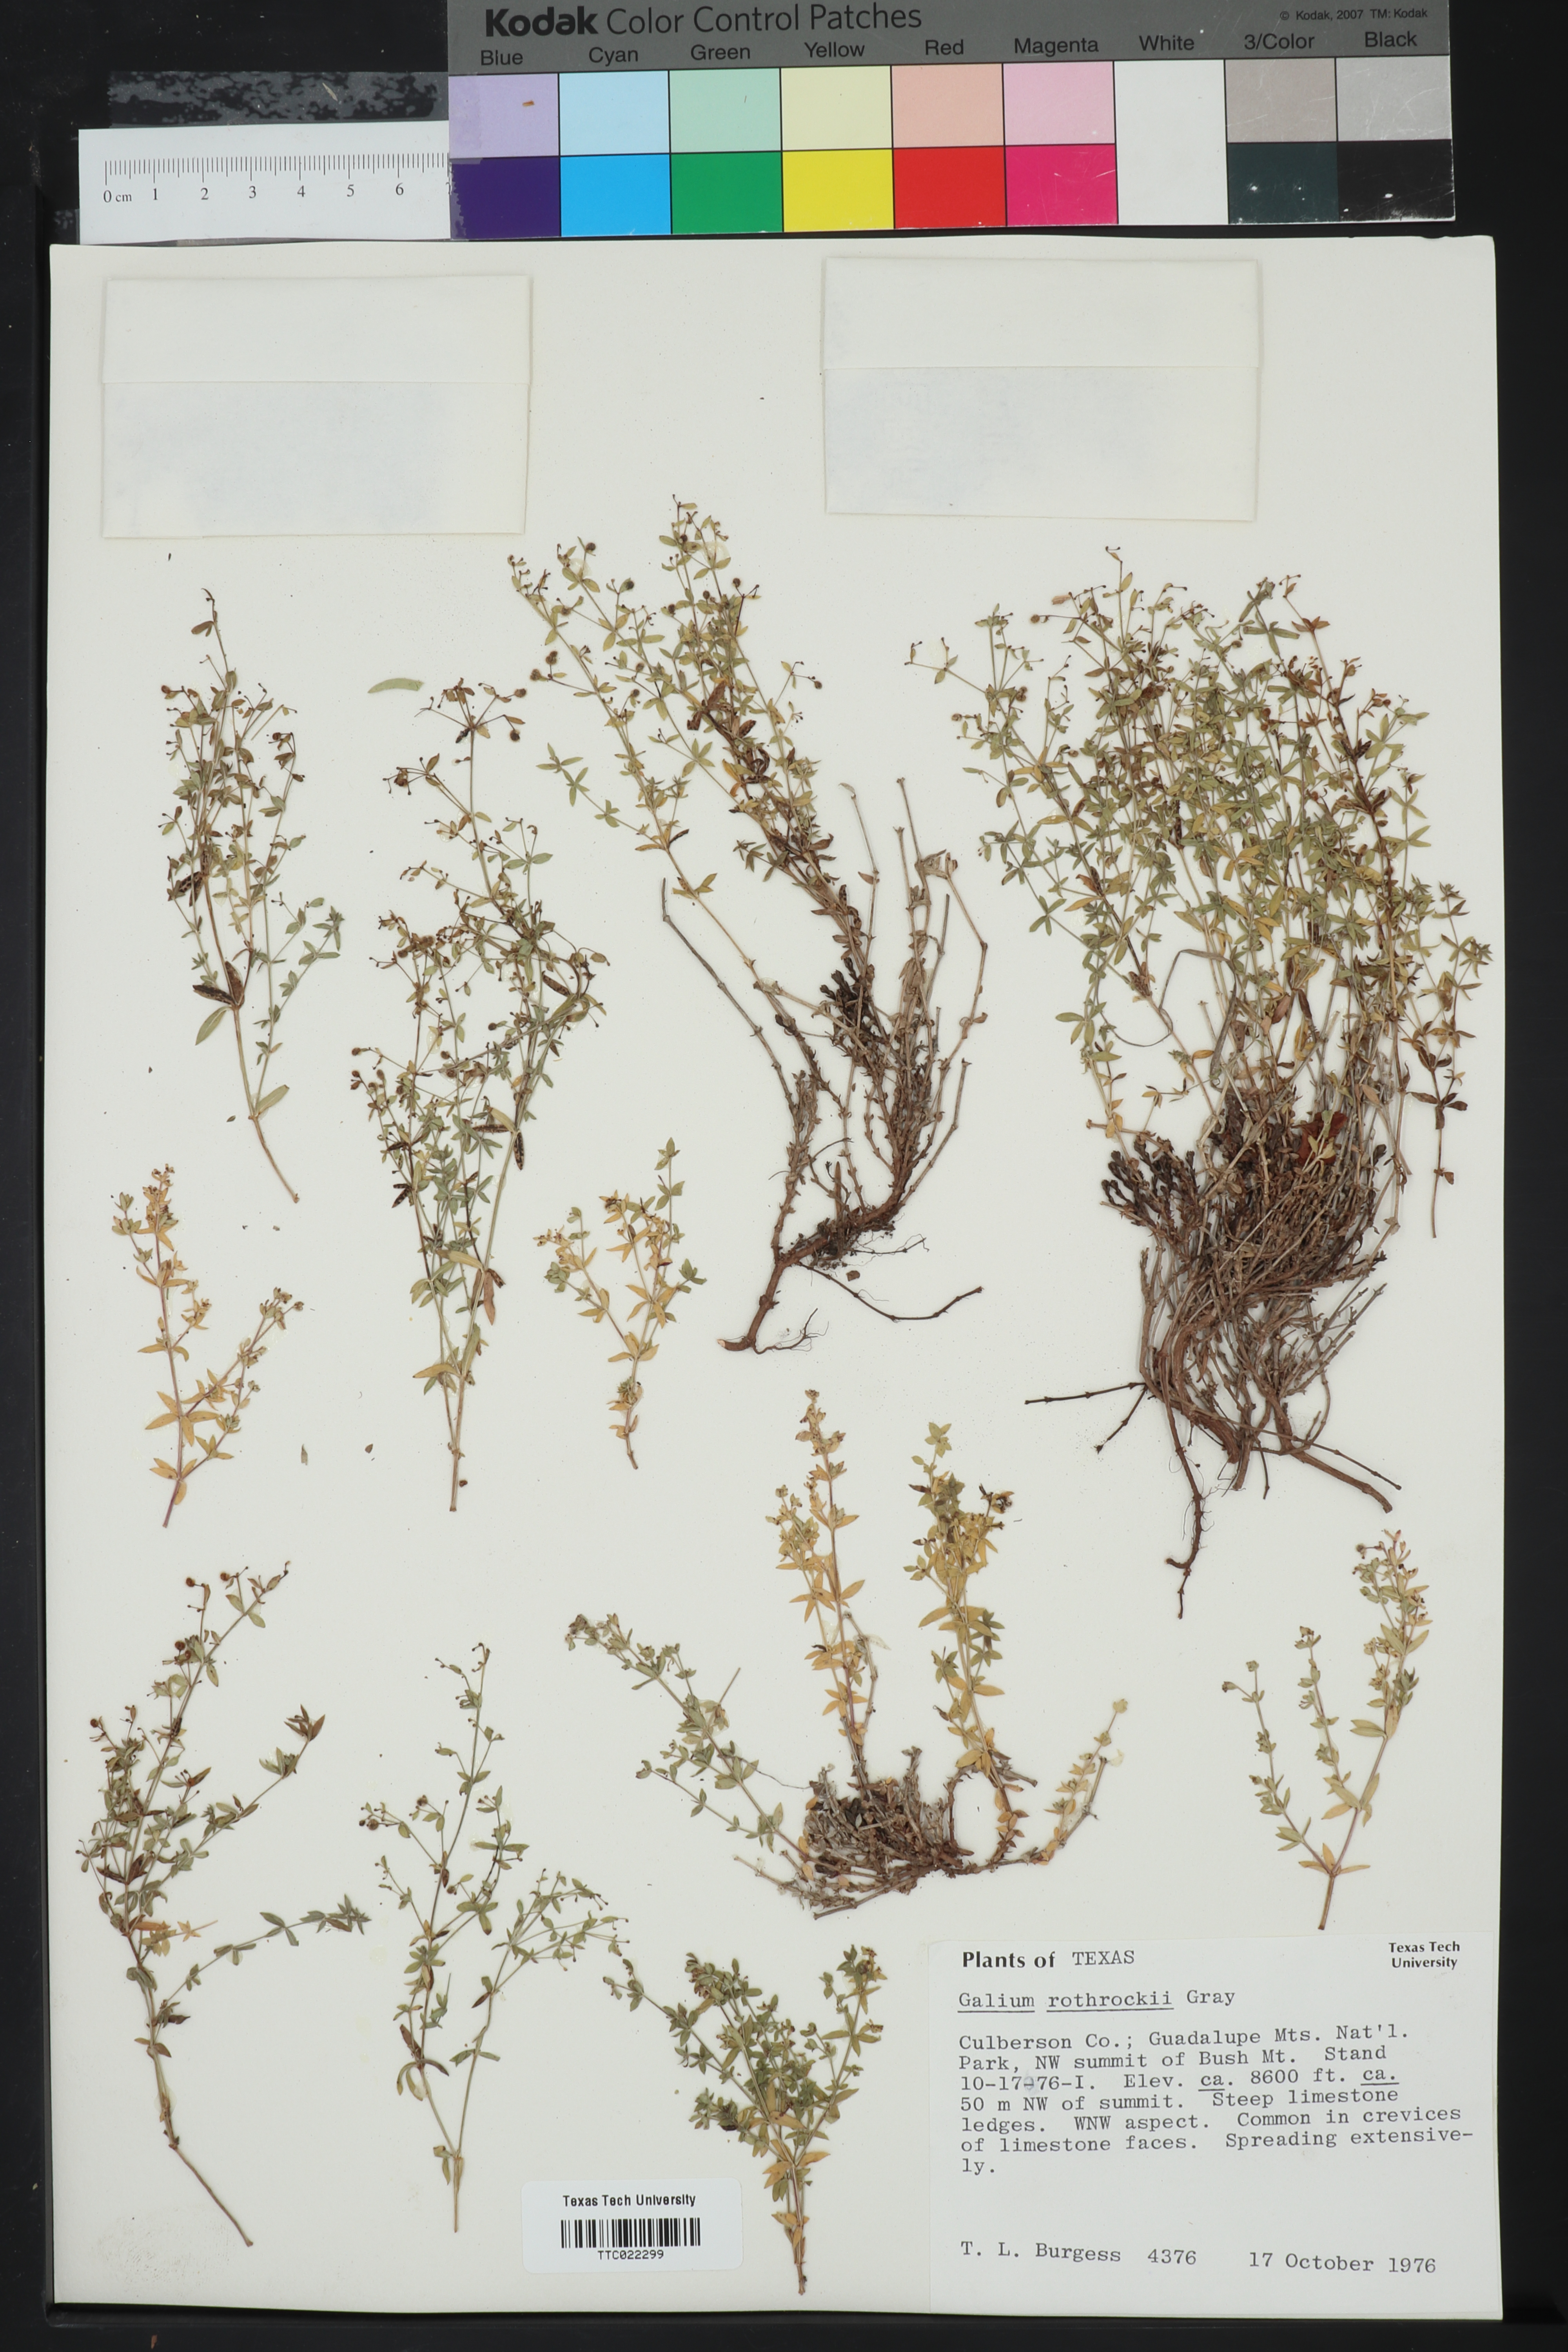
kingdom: Plantae
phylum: Tracheophyta
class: Magnoliopsida
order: Gentianales
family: Rubiaceae
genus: Galium
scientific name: Galium wrightii
